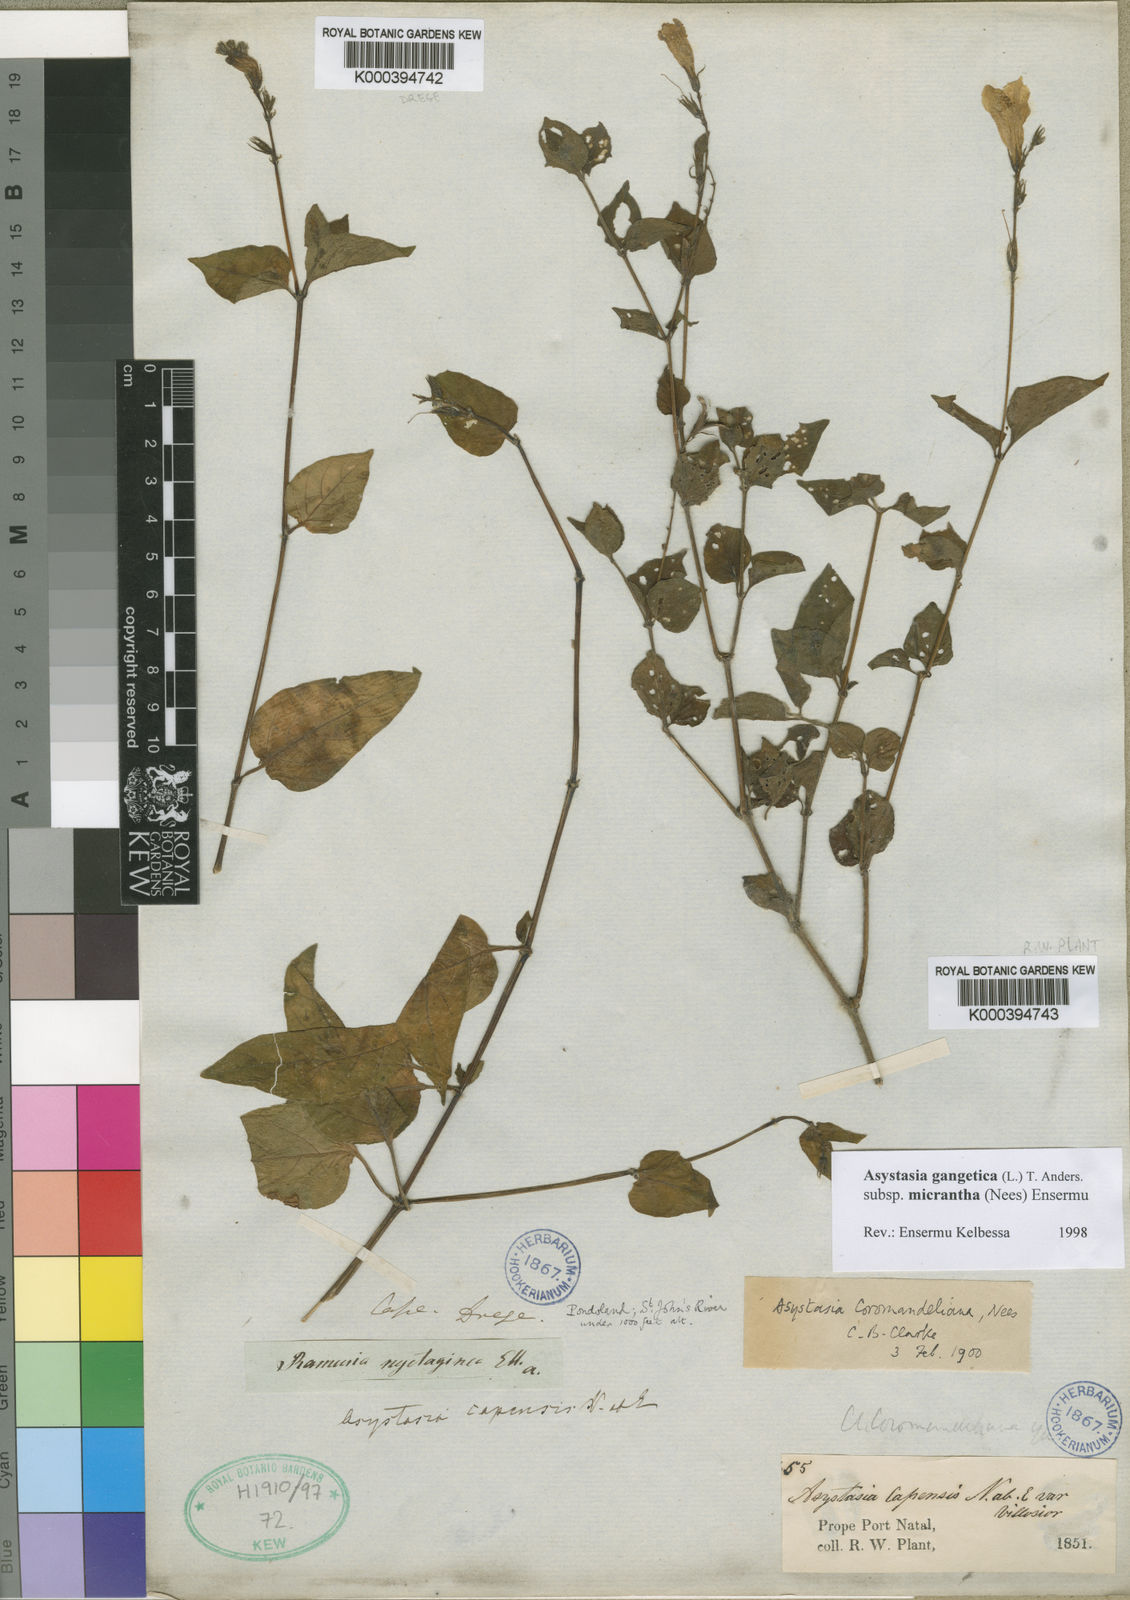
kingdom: Plantae
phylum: Tracheophyta
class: Magnoliopsida
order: Lamiales
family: Acanthaceae
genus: Asystasia
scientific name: Asystasia gangetica
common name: Chinese violet
